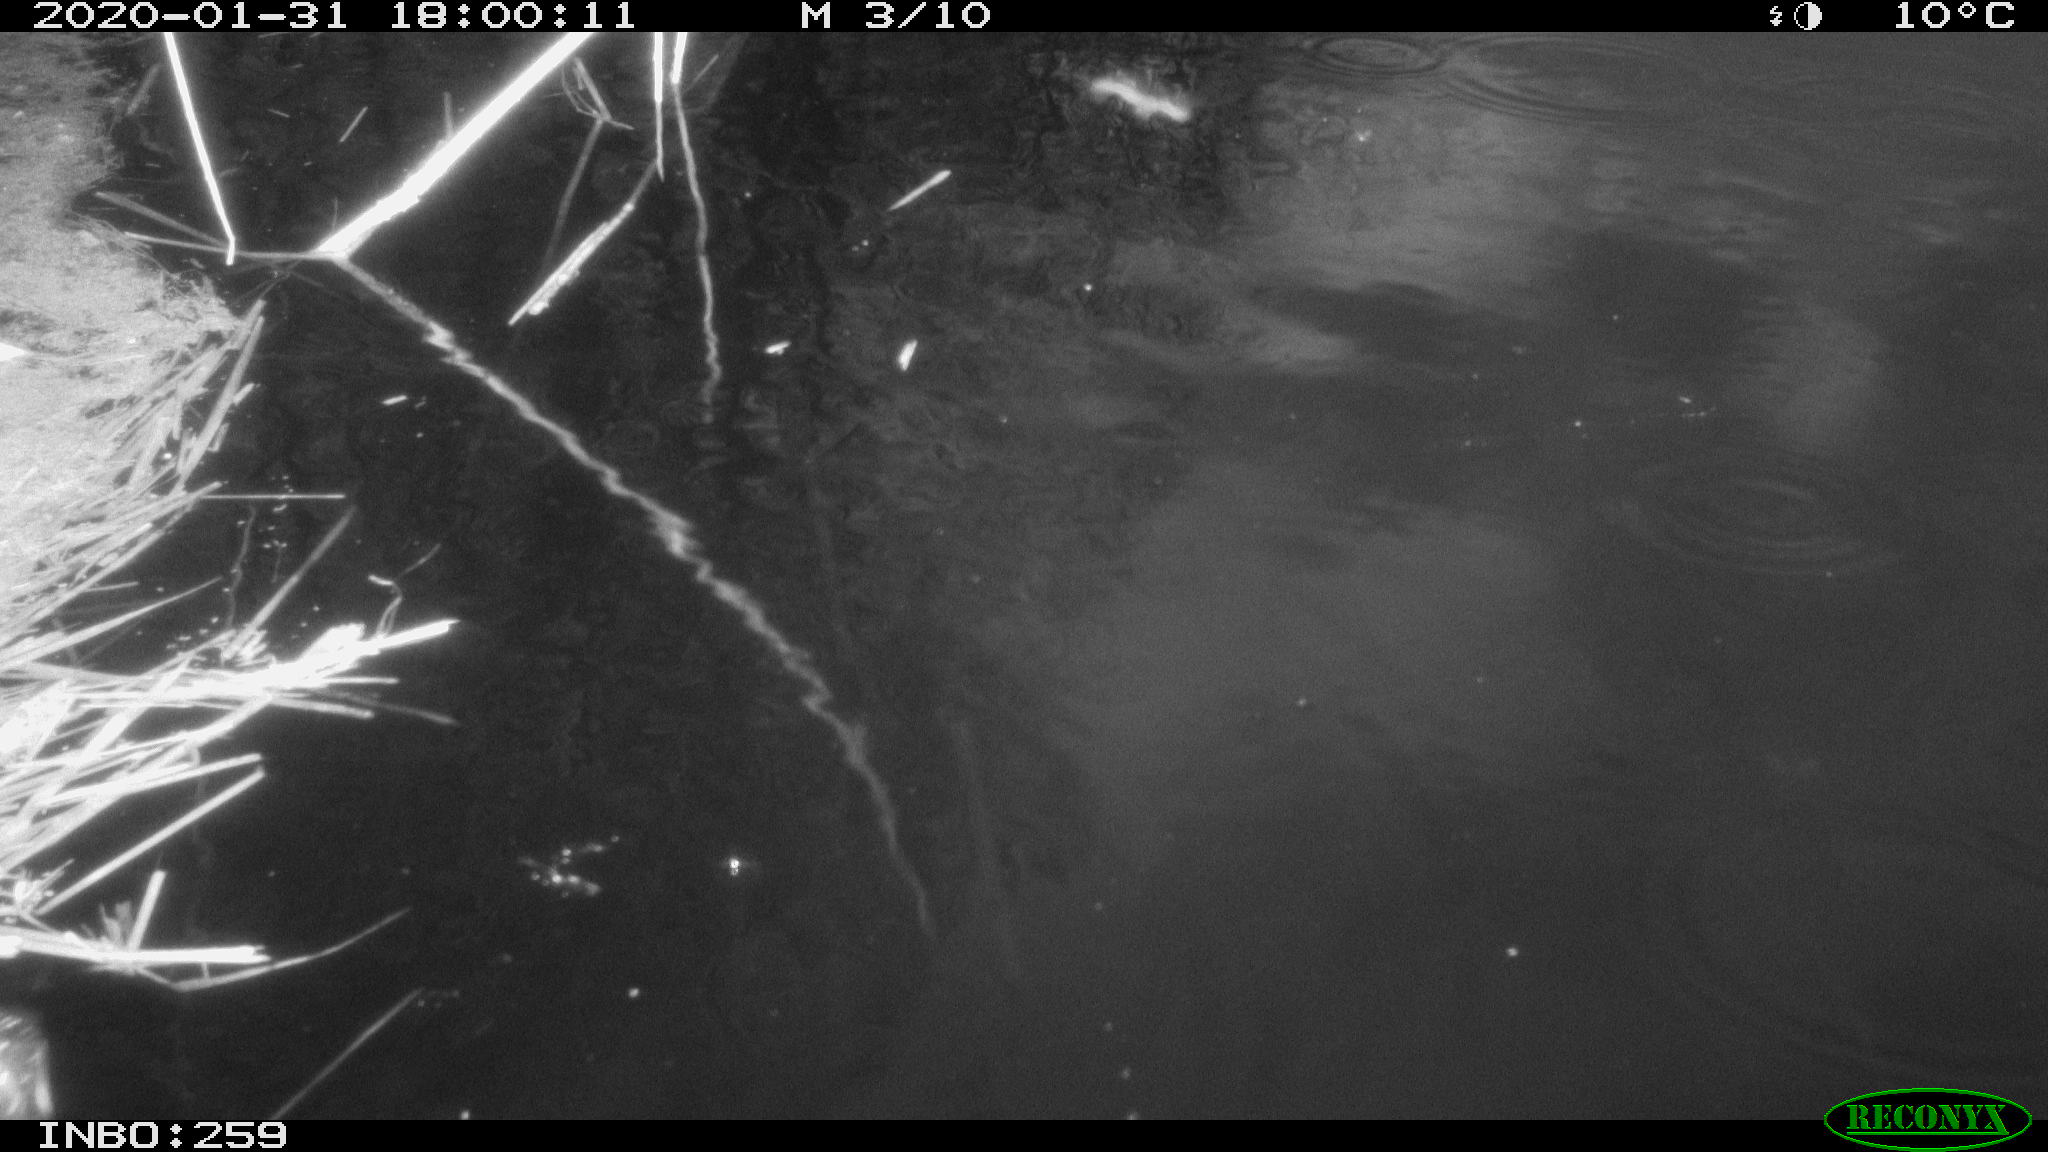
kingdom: Animalia
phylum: Chordata
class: Aves
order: Gruiformes
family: Rallidae
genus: Gallinula
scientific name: Gallinula chloropus
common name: Common moorhen
